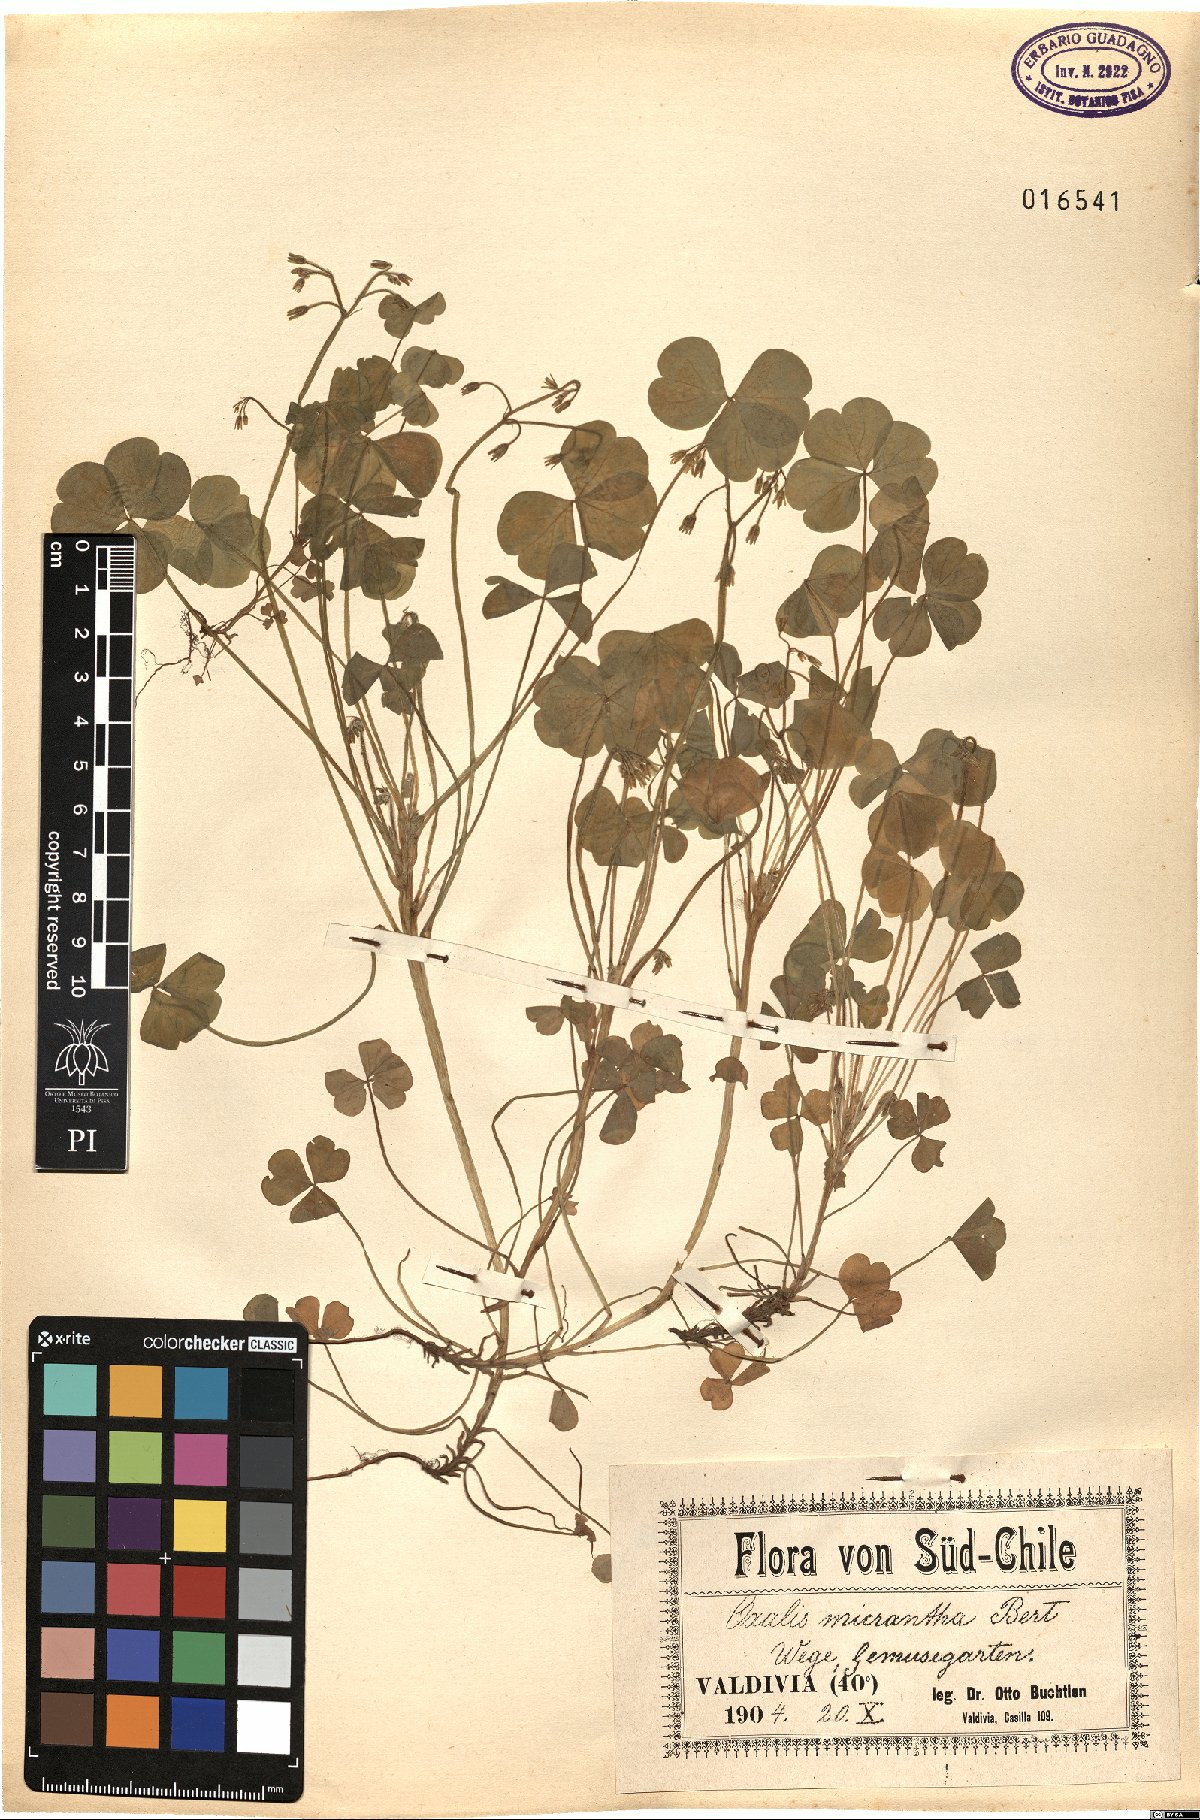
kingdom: Plantae
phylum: Tracheophyta
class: Magnoliopsida
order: Oxalidales
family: Oxalidaceae
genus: Oxalis
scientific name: Oxalis micrantha
